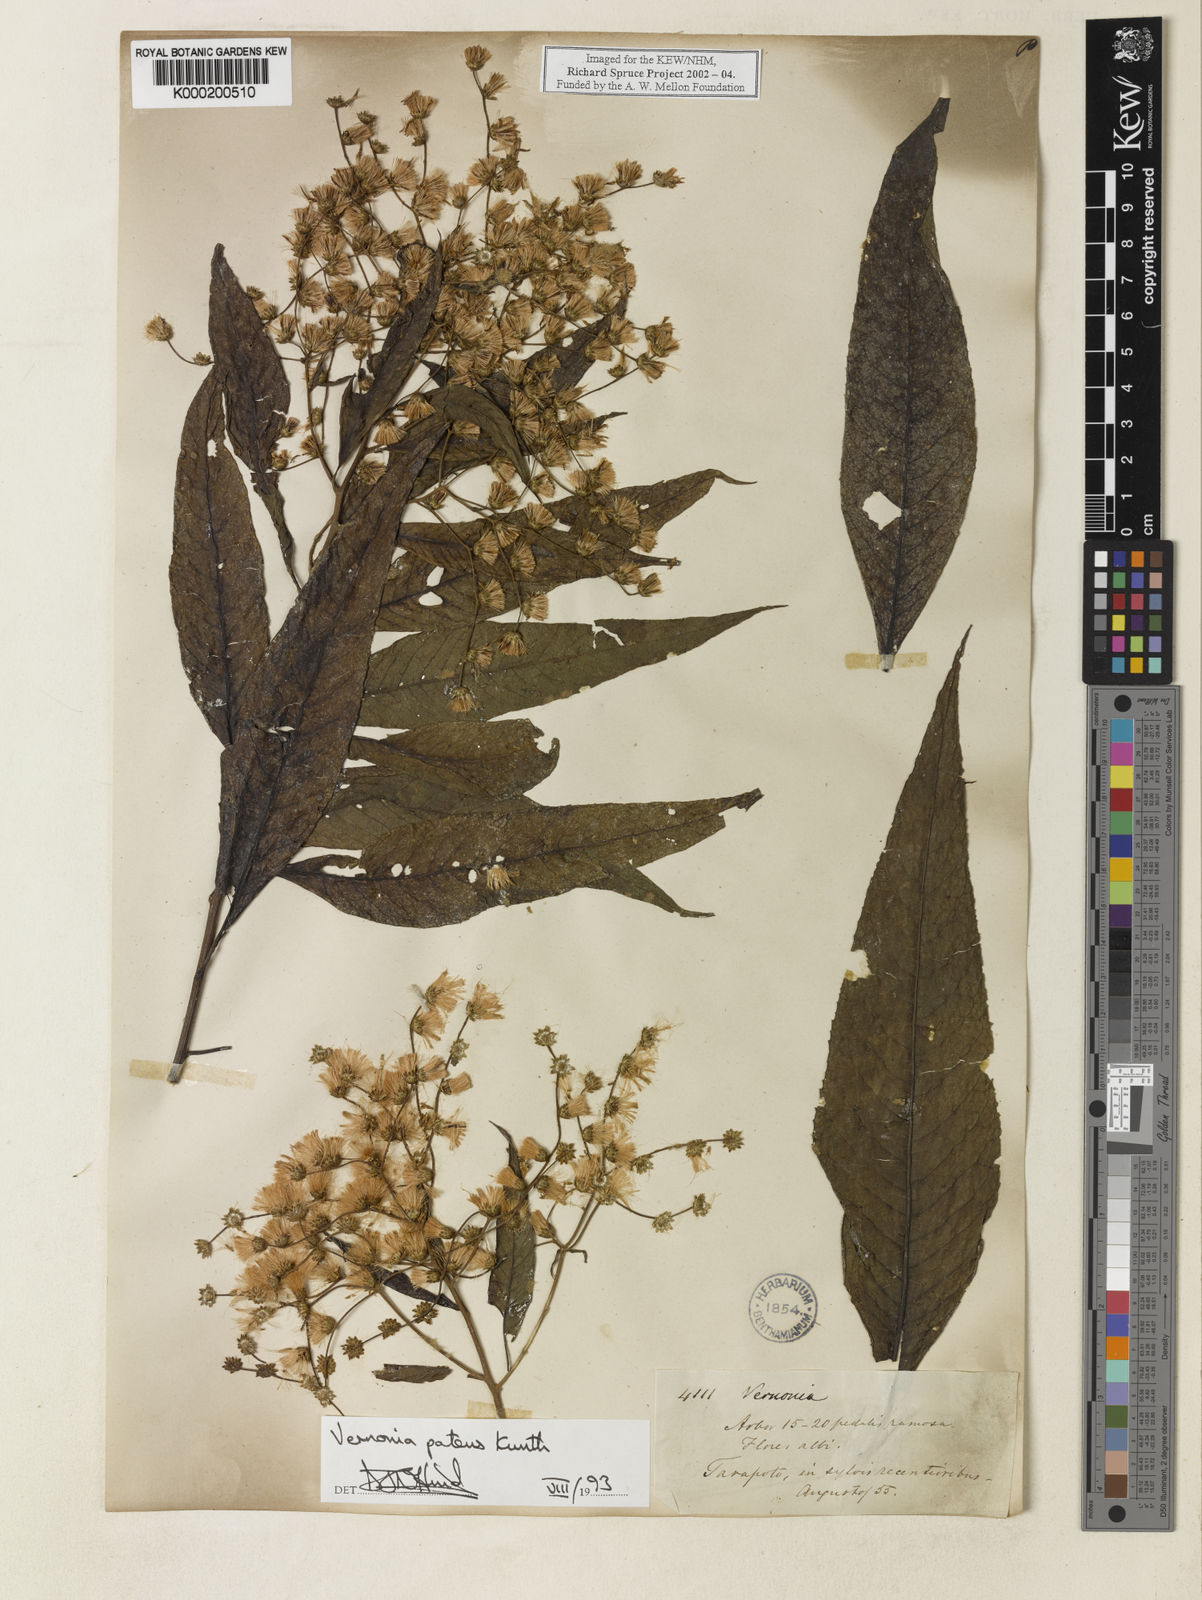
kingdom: Plantae
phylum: Tracheophyta
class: Magnoliopsida
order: Asterales
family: Asteraceae
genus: Vernonanthura
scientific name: Vernonanthura patens
